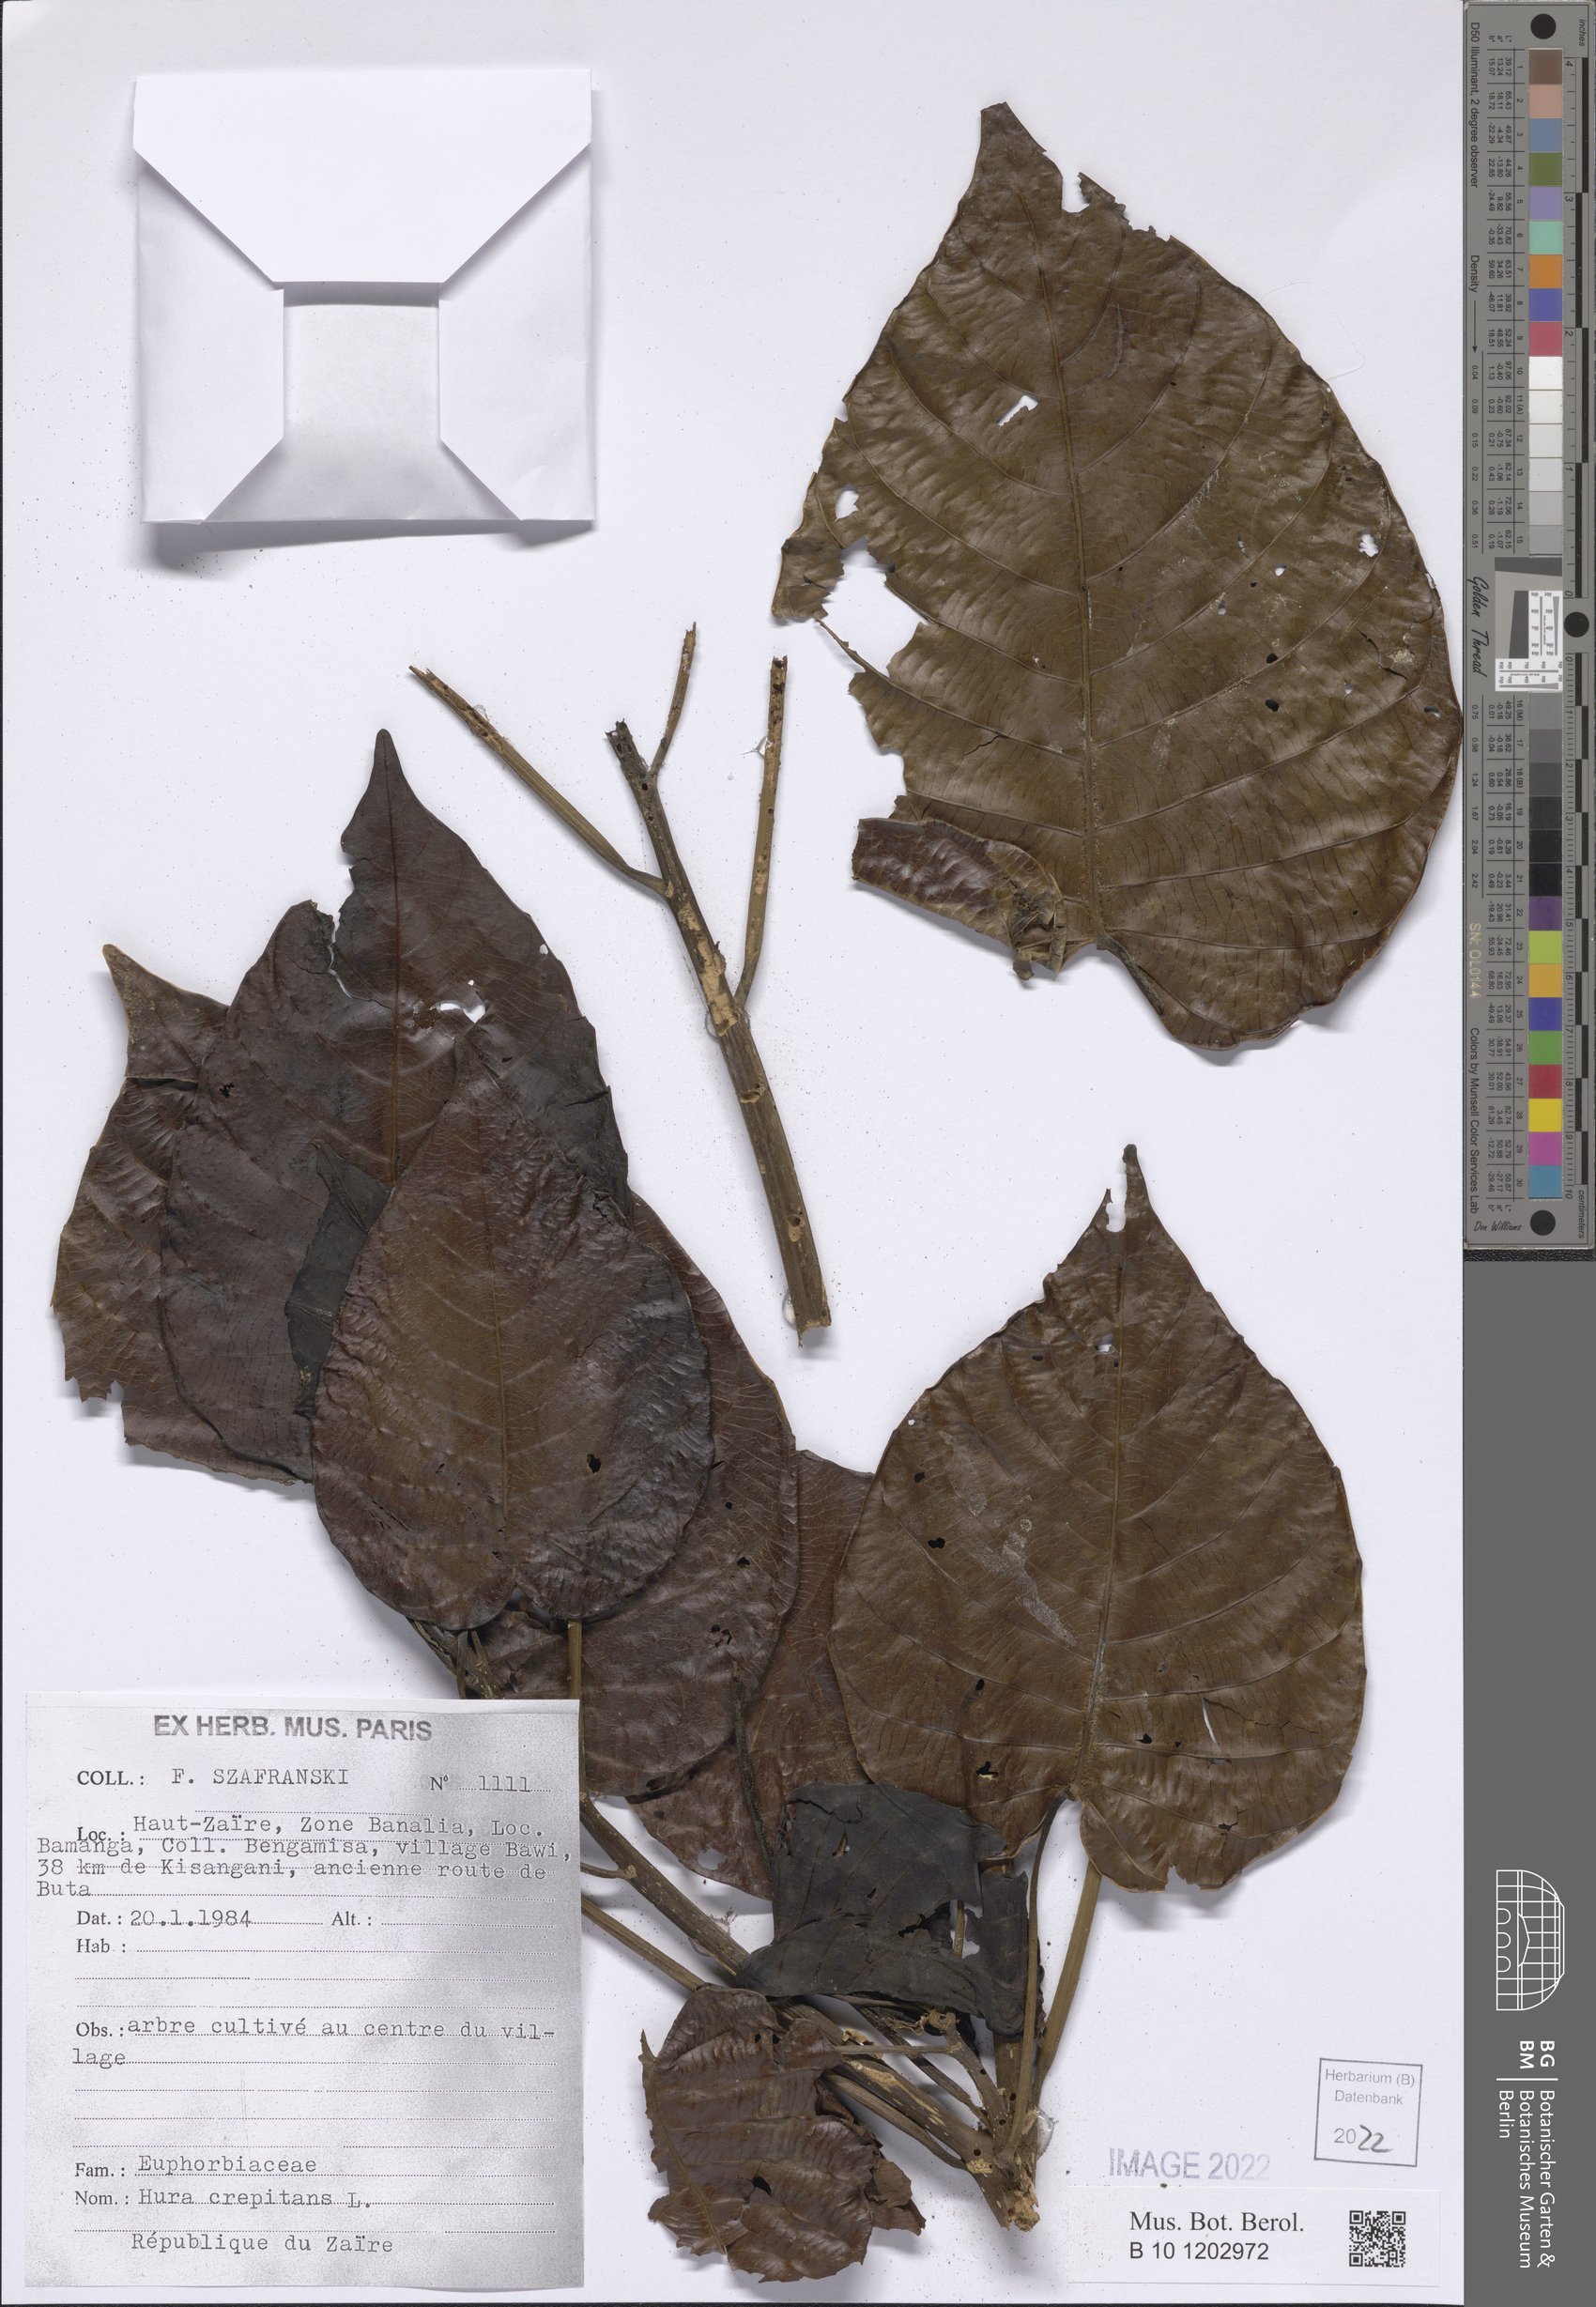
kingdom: Plantae
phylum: Tracheophyta
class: Magnoliopsida
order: Malpighiales
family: Euphorbiaceae
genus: Hura
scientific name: Hura crepitans
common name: Sandboxtree
